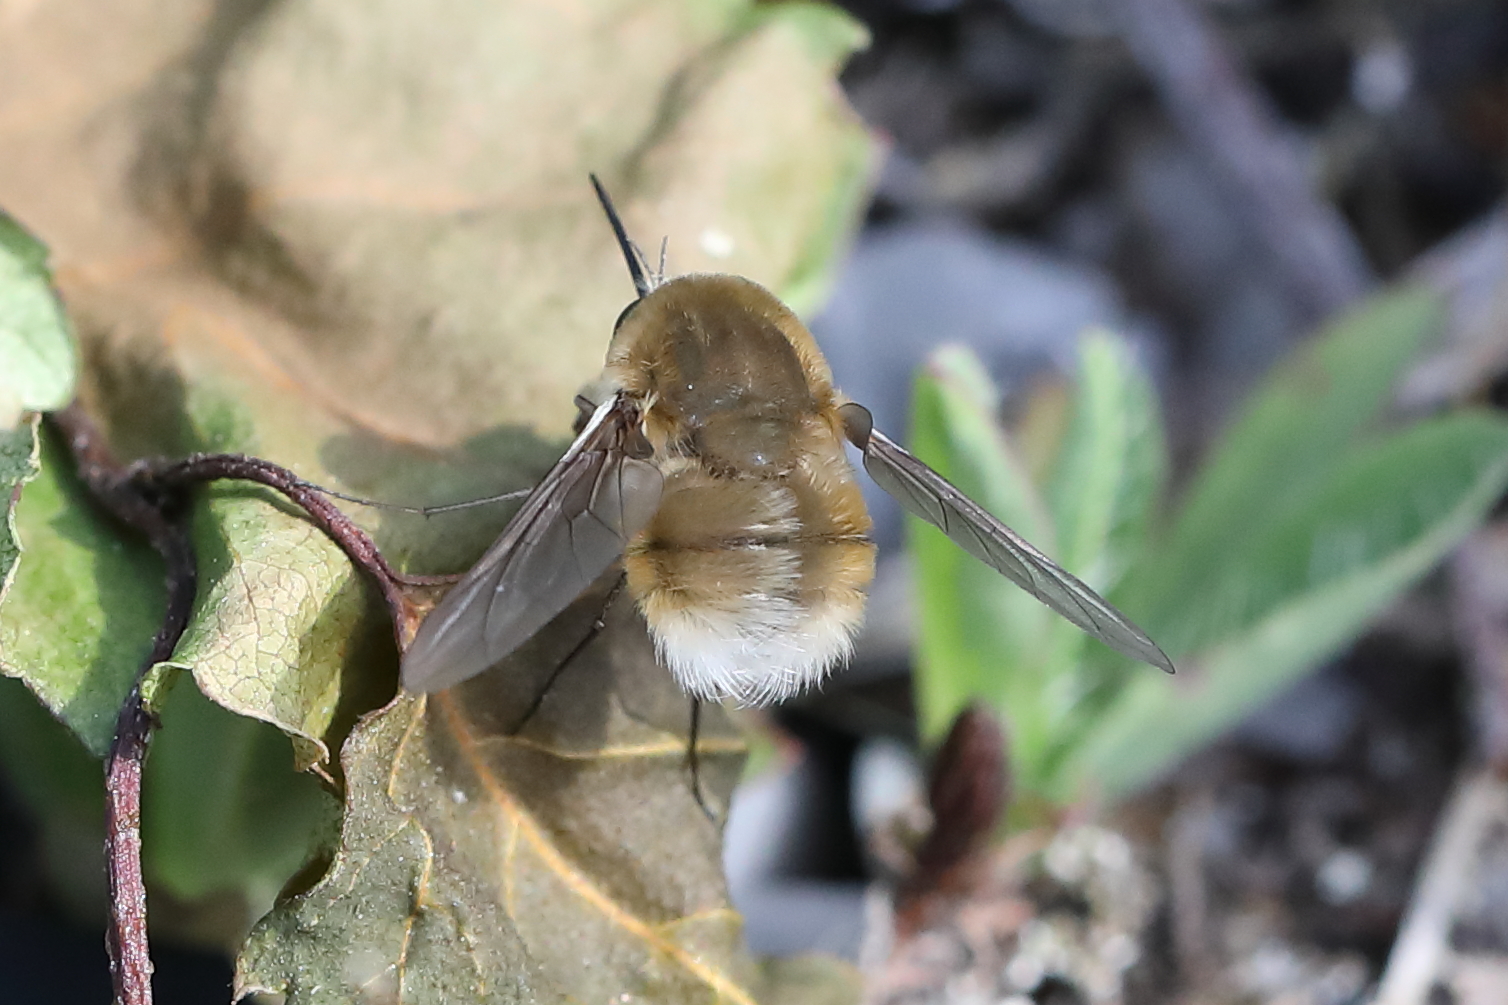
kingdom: Animalia
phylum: Arthropoda
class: Insecta
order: Diptera
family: Bombyliidae
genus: Bombylius
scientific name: Bombylius minor
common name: Heath bee-fly
